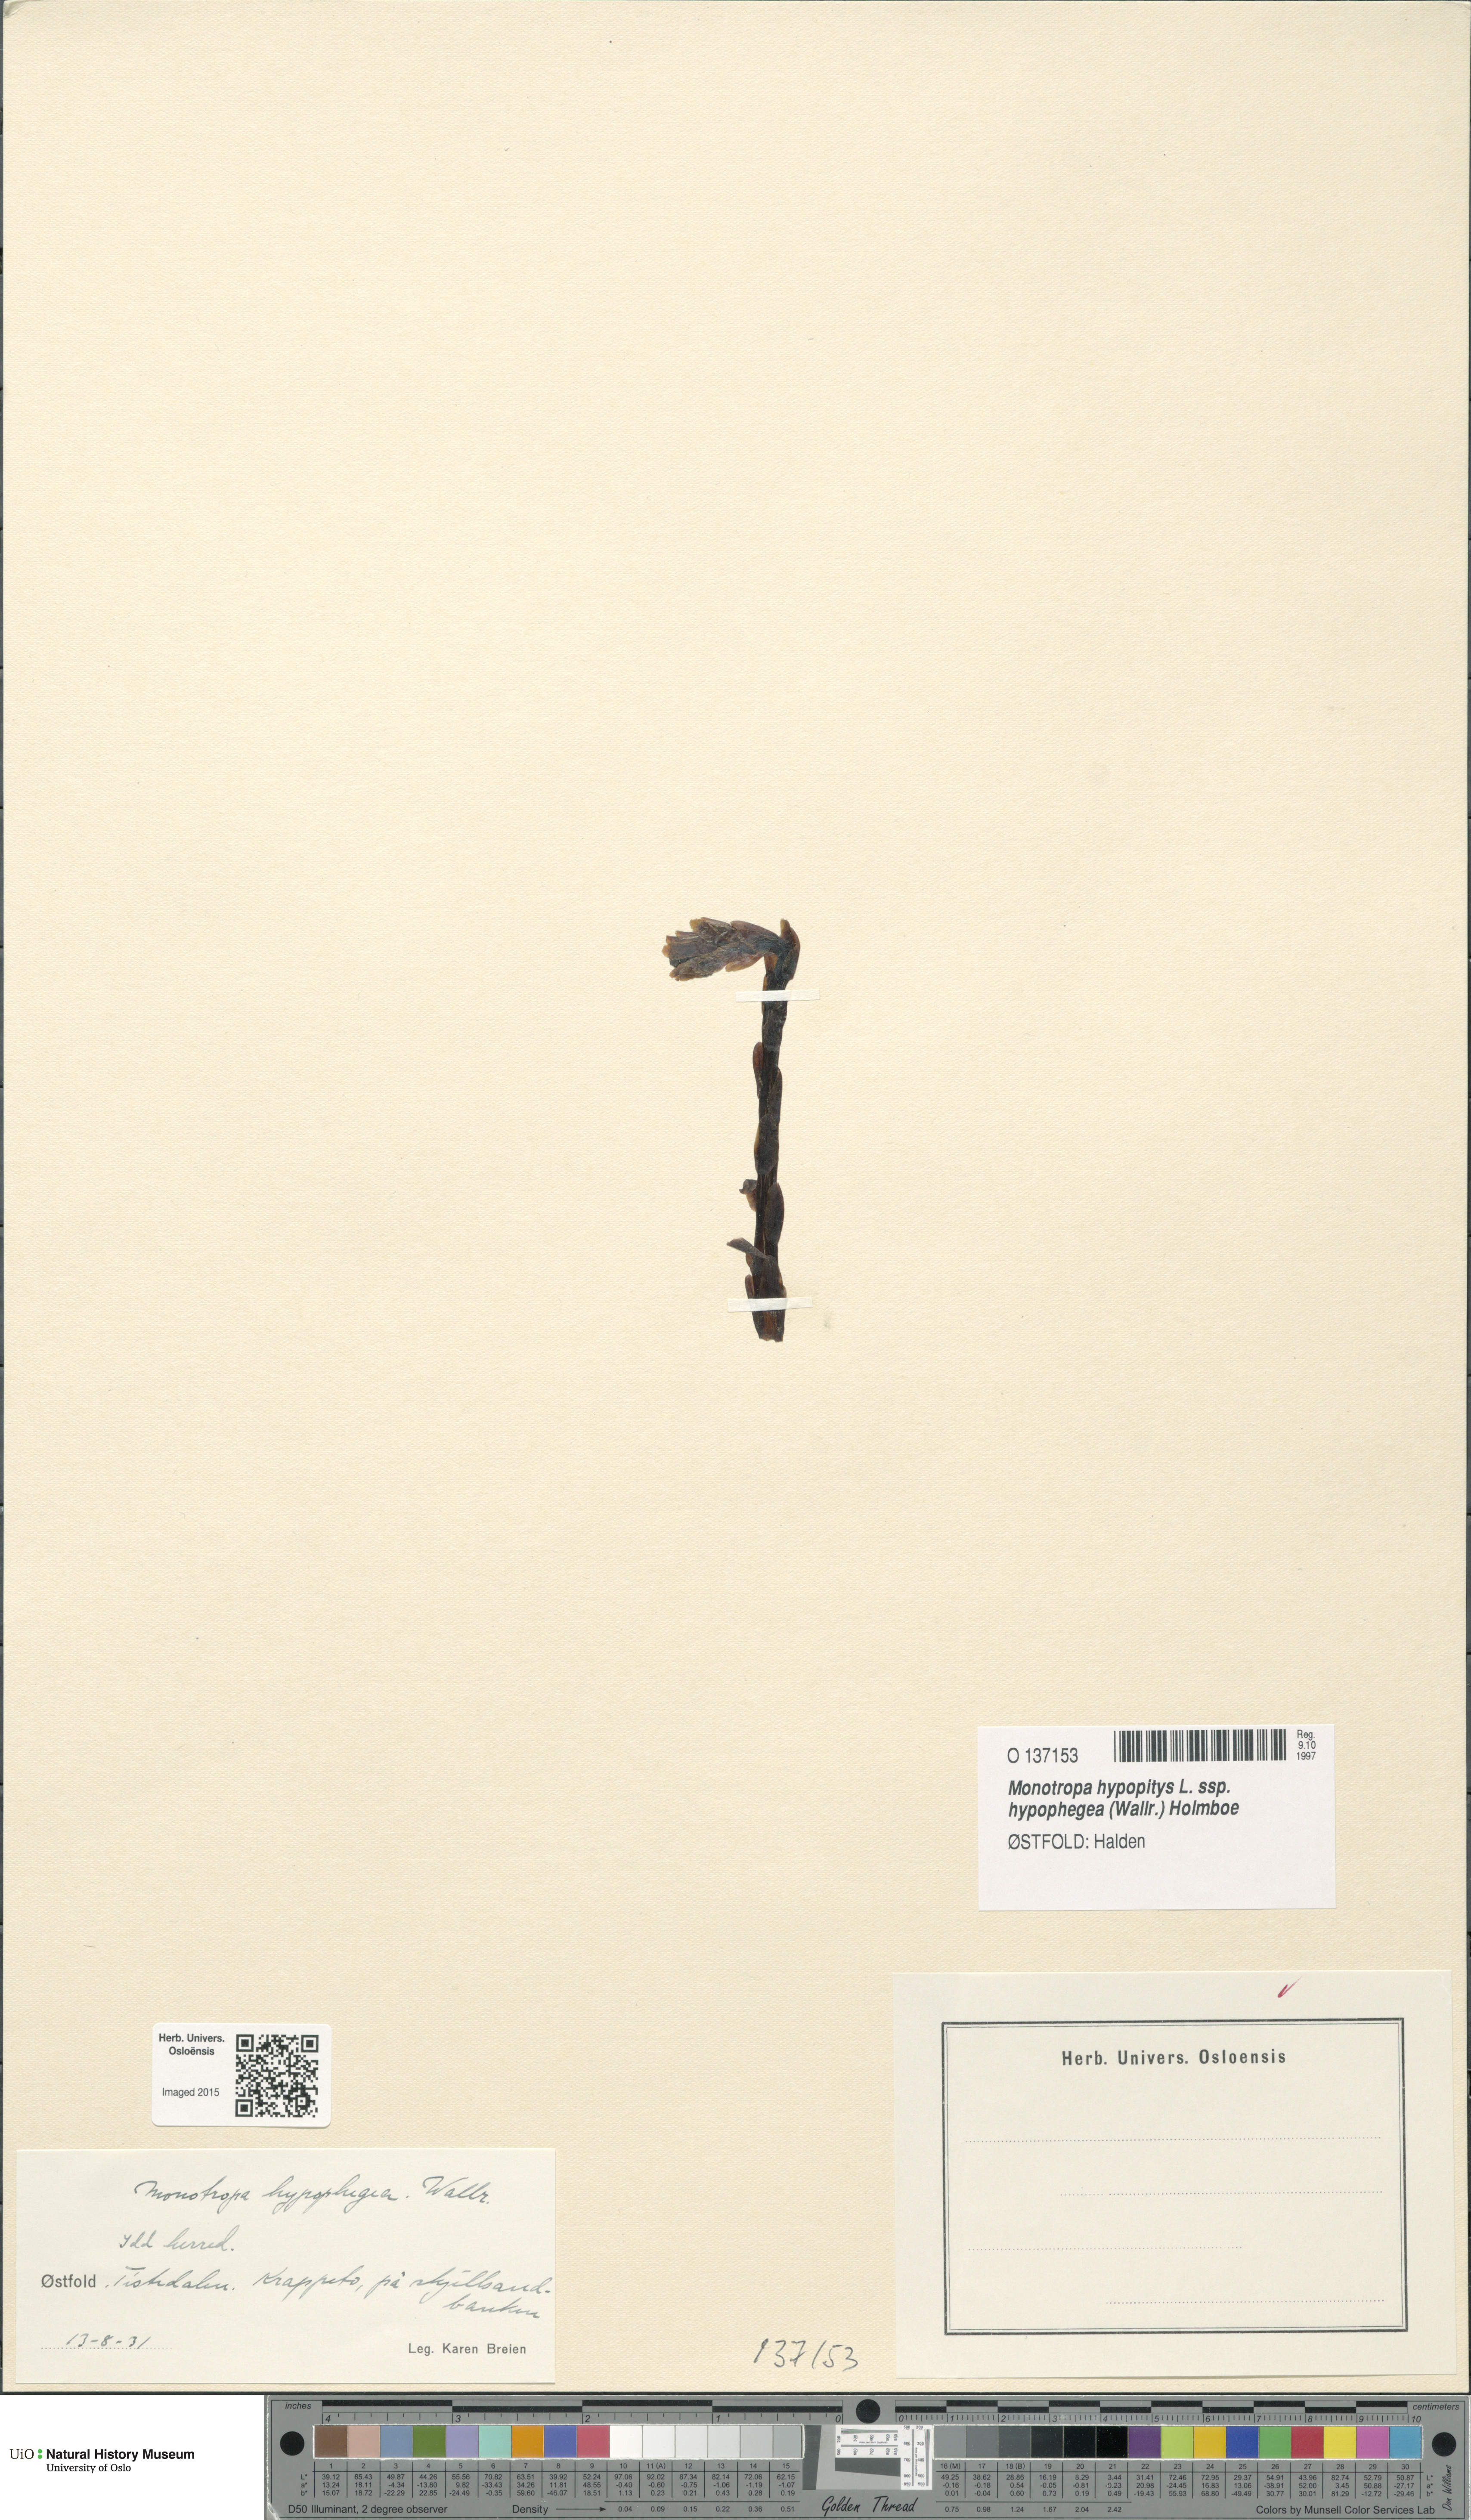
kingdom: Plantae
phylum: Tracheophyta
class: Magnoliopsida
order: Ericales
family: Ericaceae
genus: Hypopitys
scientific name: Hypopitys hypophegea
